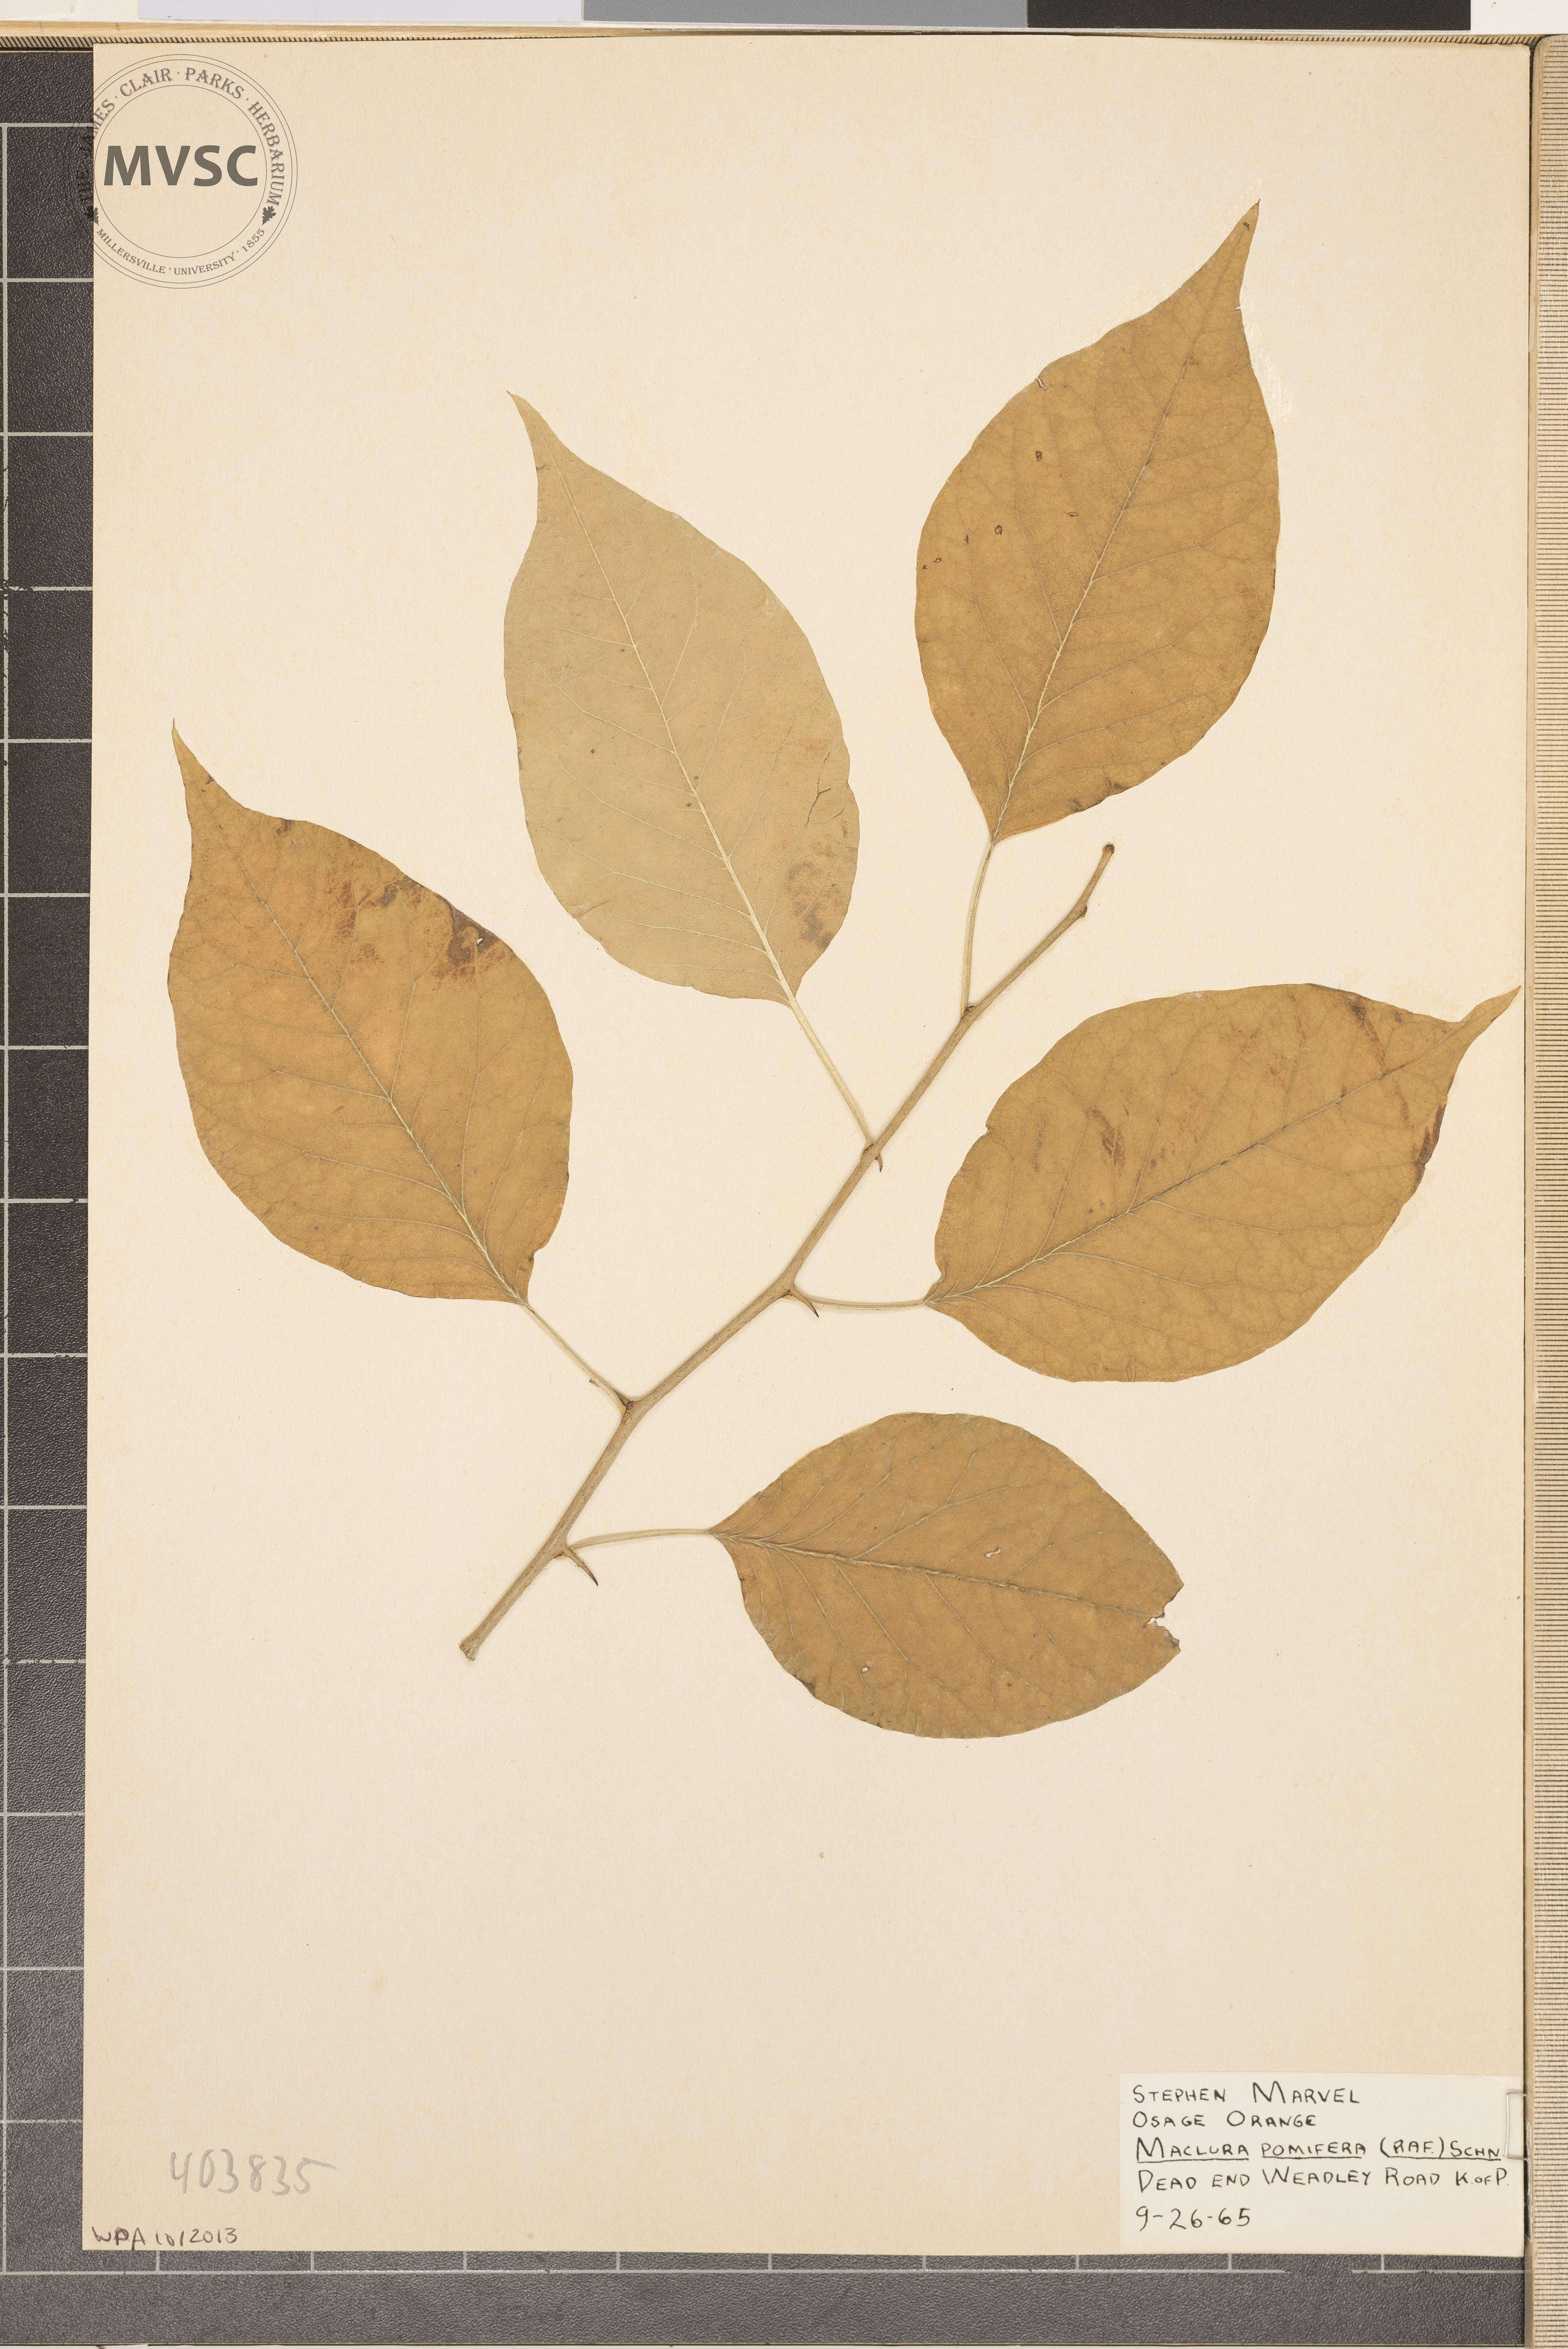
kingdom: Plantae
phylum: Tracheophyta
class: Magnoliopsida
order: Rosales
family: Moraceae
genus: Maclura
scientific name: Maclura pomifera
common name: Osage Orange
